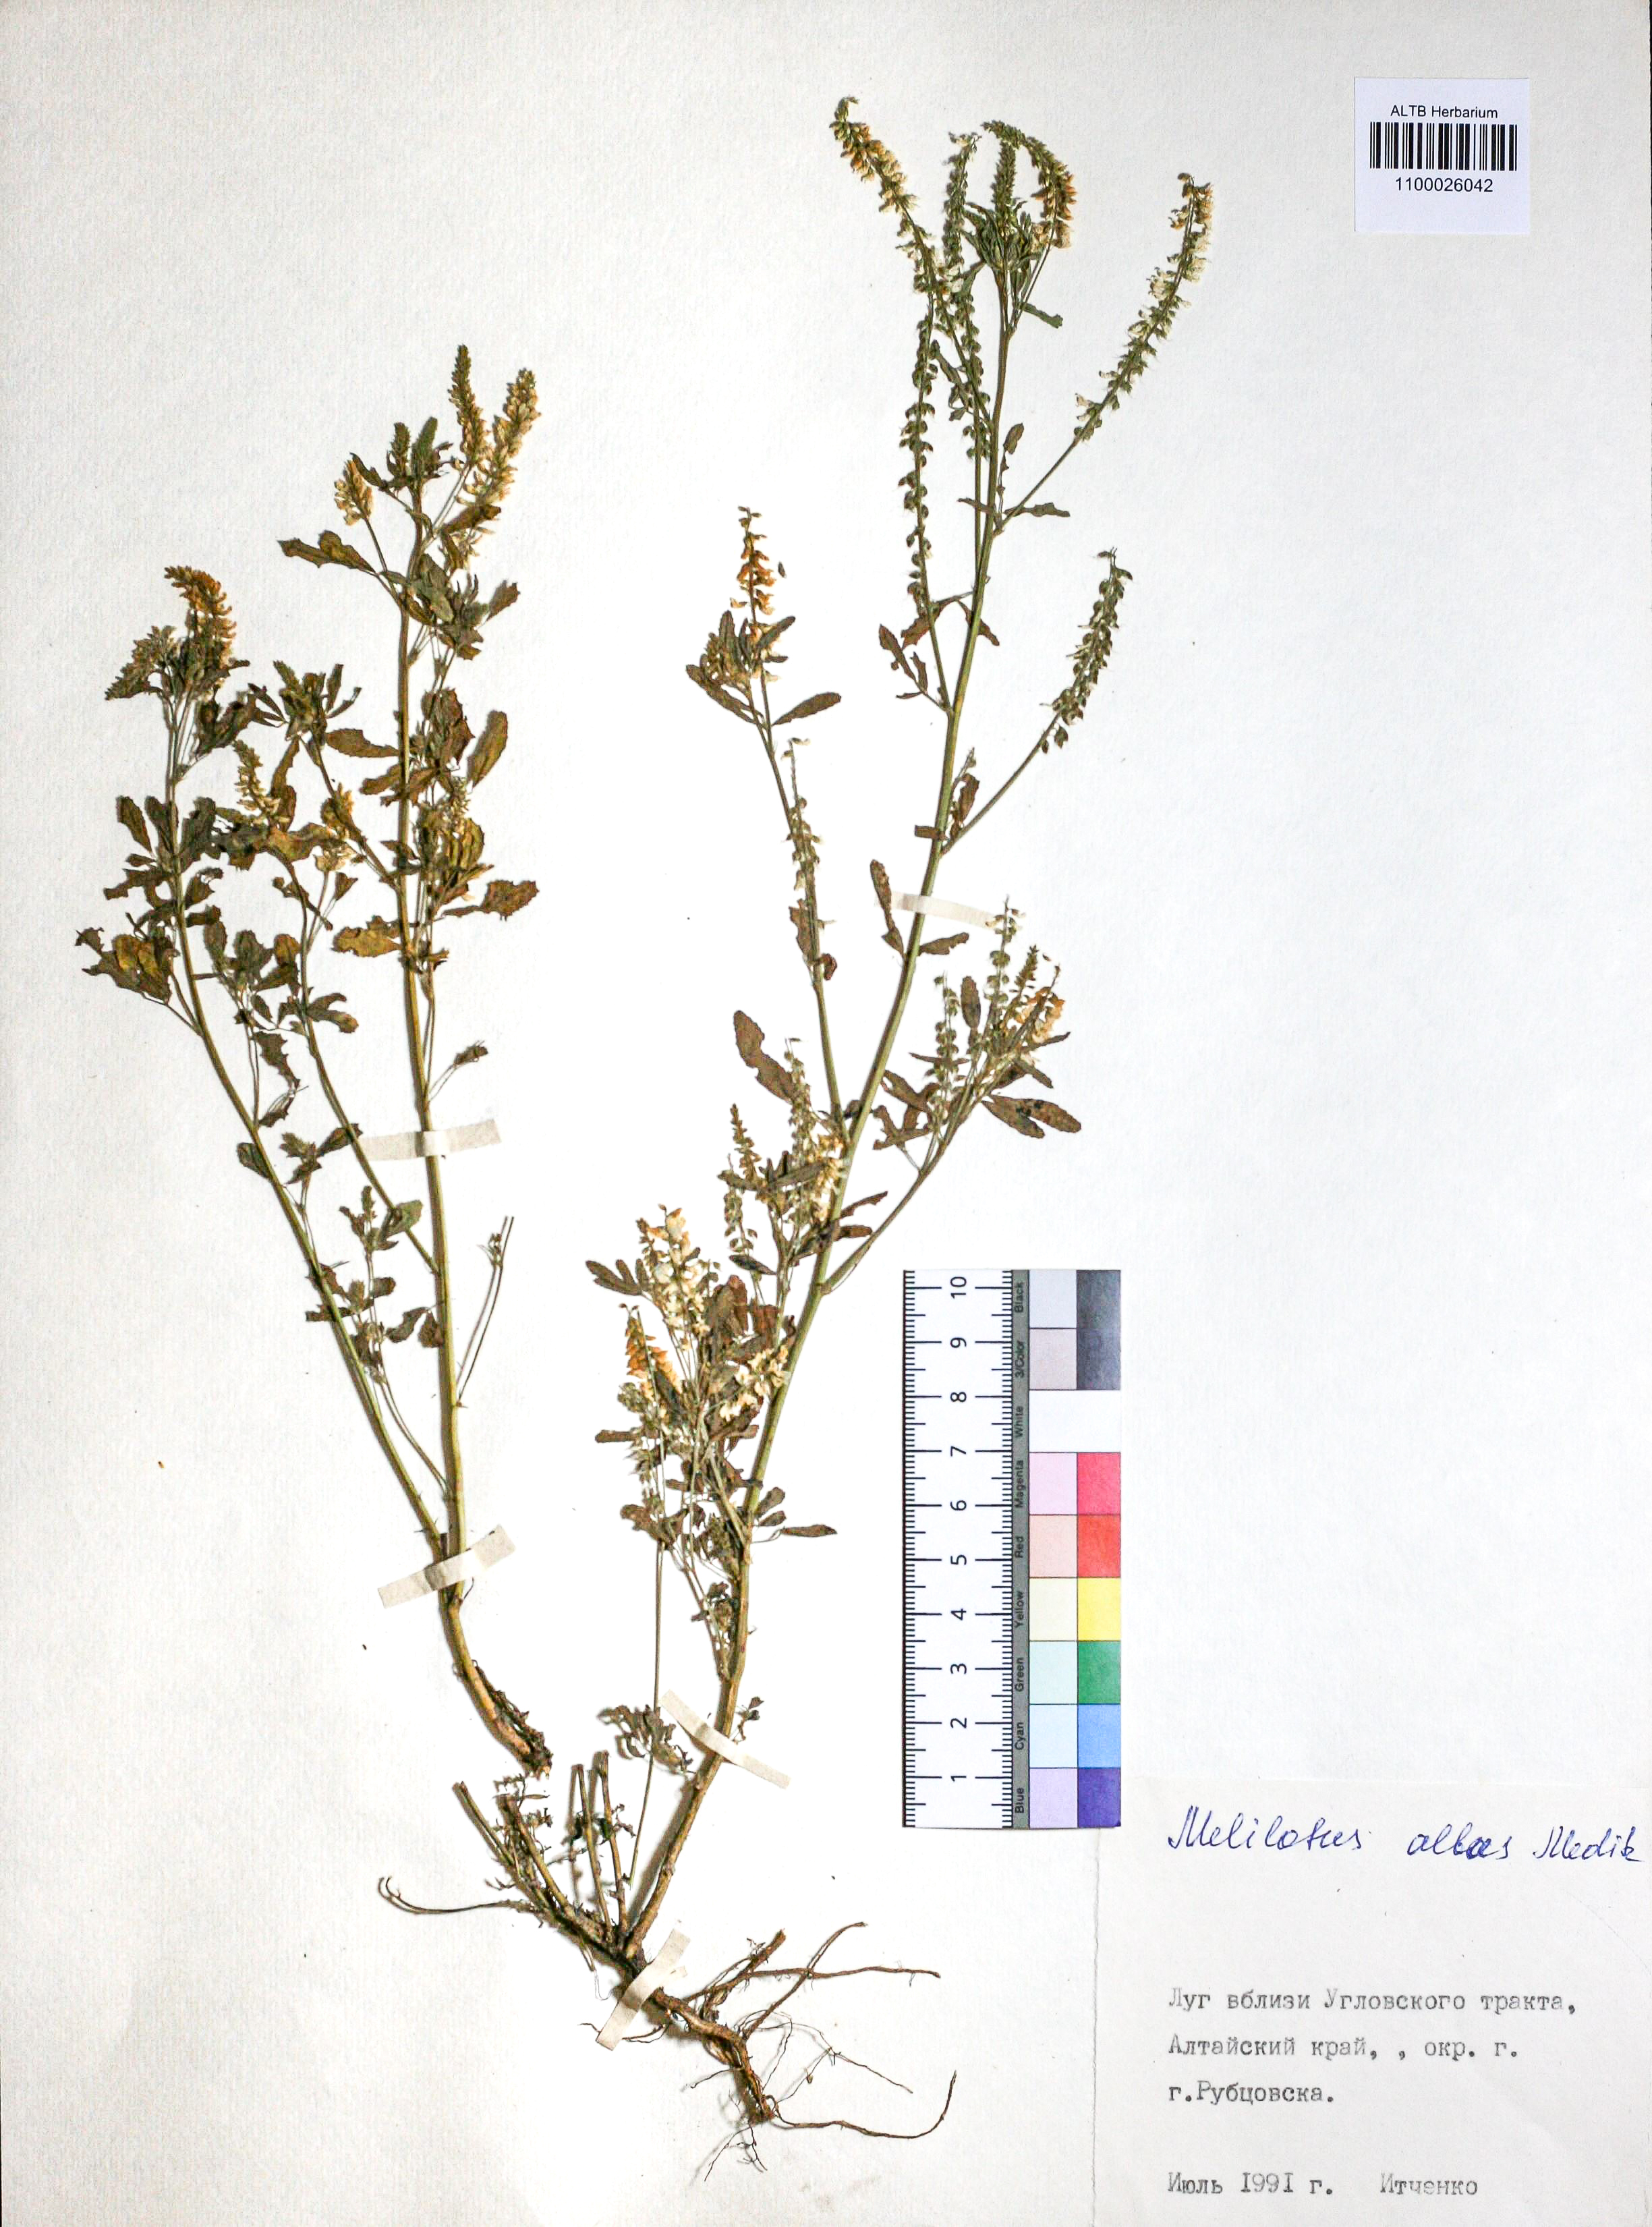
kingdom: Plantae
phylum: Tracheophyta
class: Magnoliopsida
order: Fabales
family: Fabaceae
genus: Melilotus
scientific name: Melilotus albus
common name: White melilot
